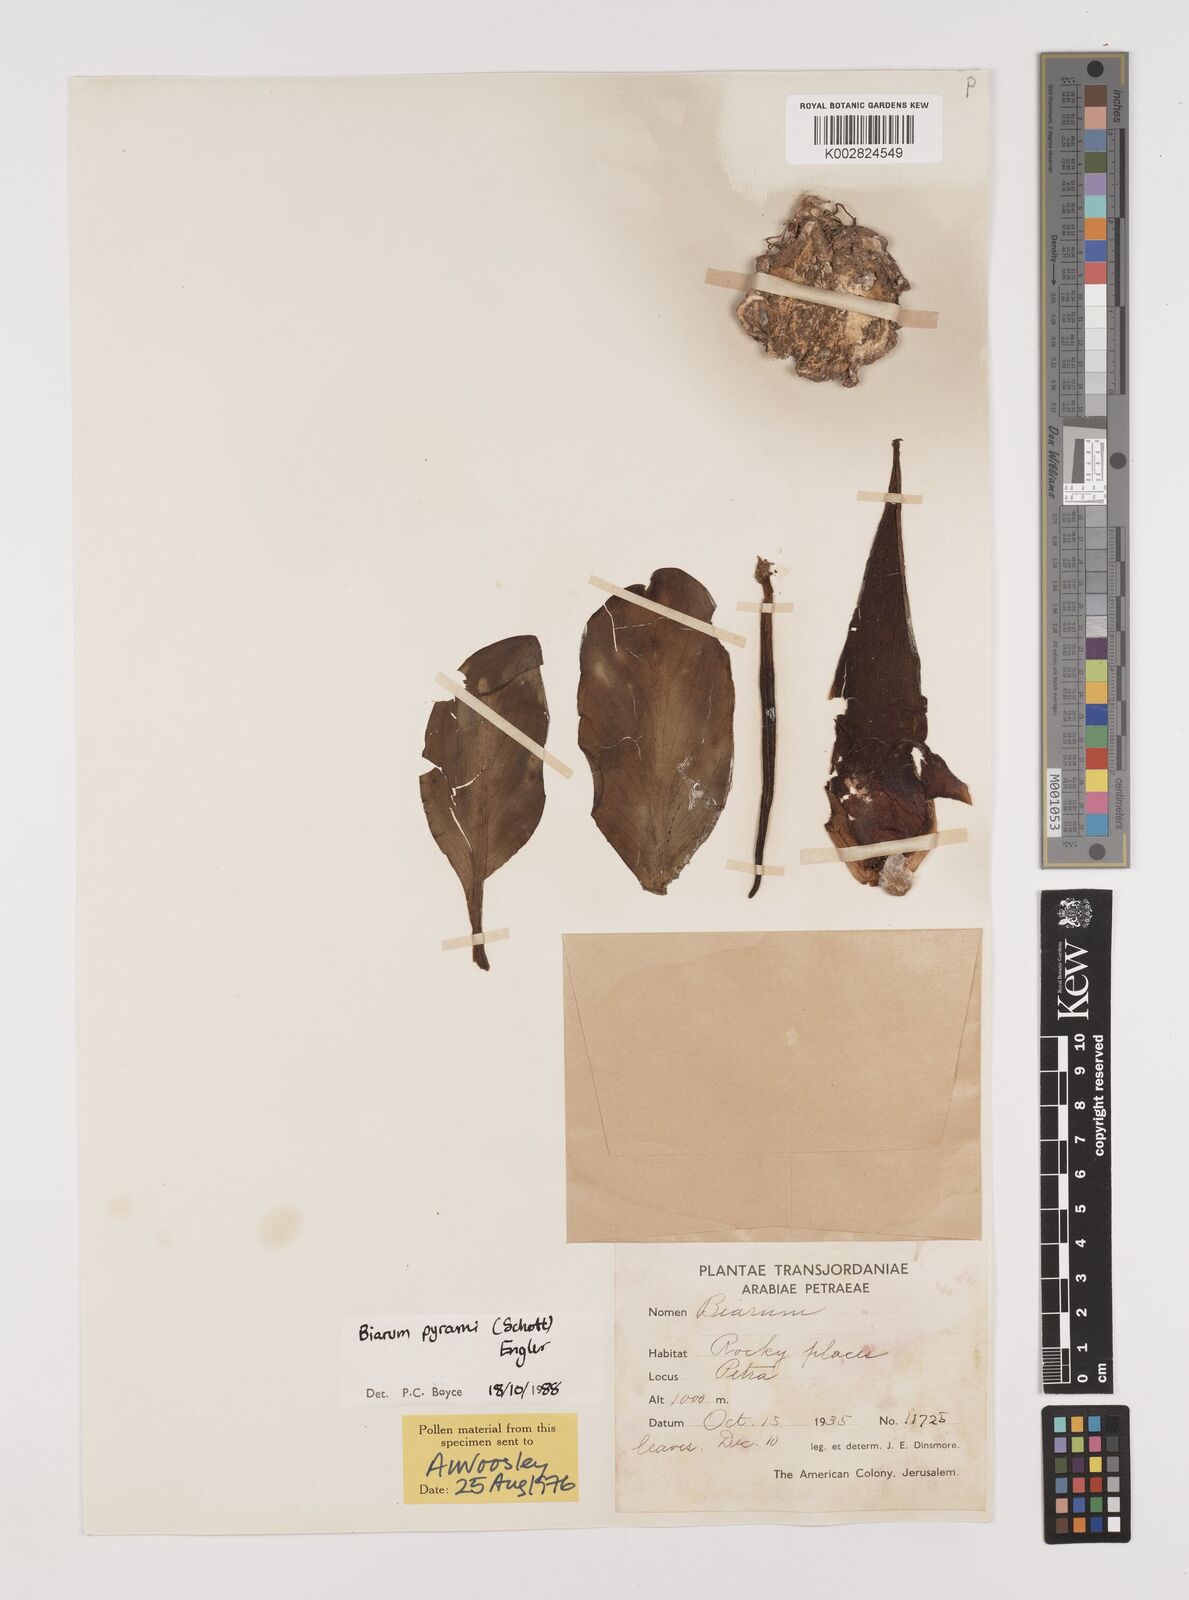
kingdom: Plantae
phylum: Tracheophyta
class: Liliopsida
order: Alismatales
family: Araceae
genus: Biarum
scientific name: Biarum pyrami
